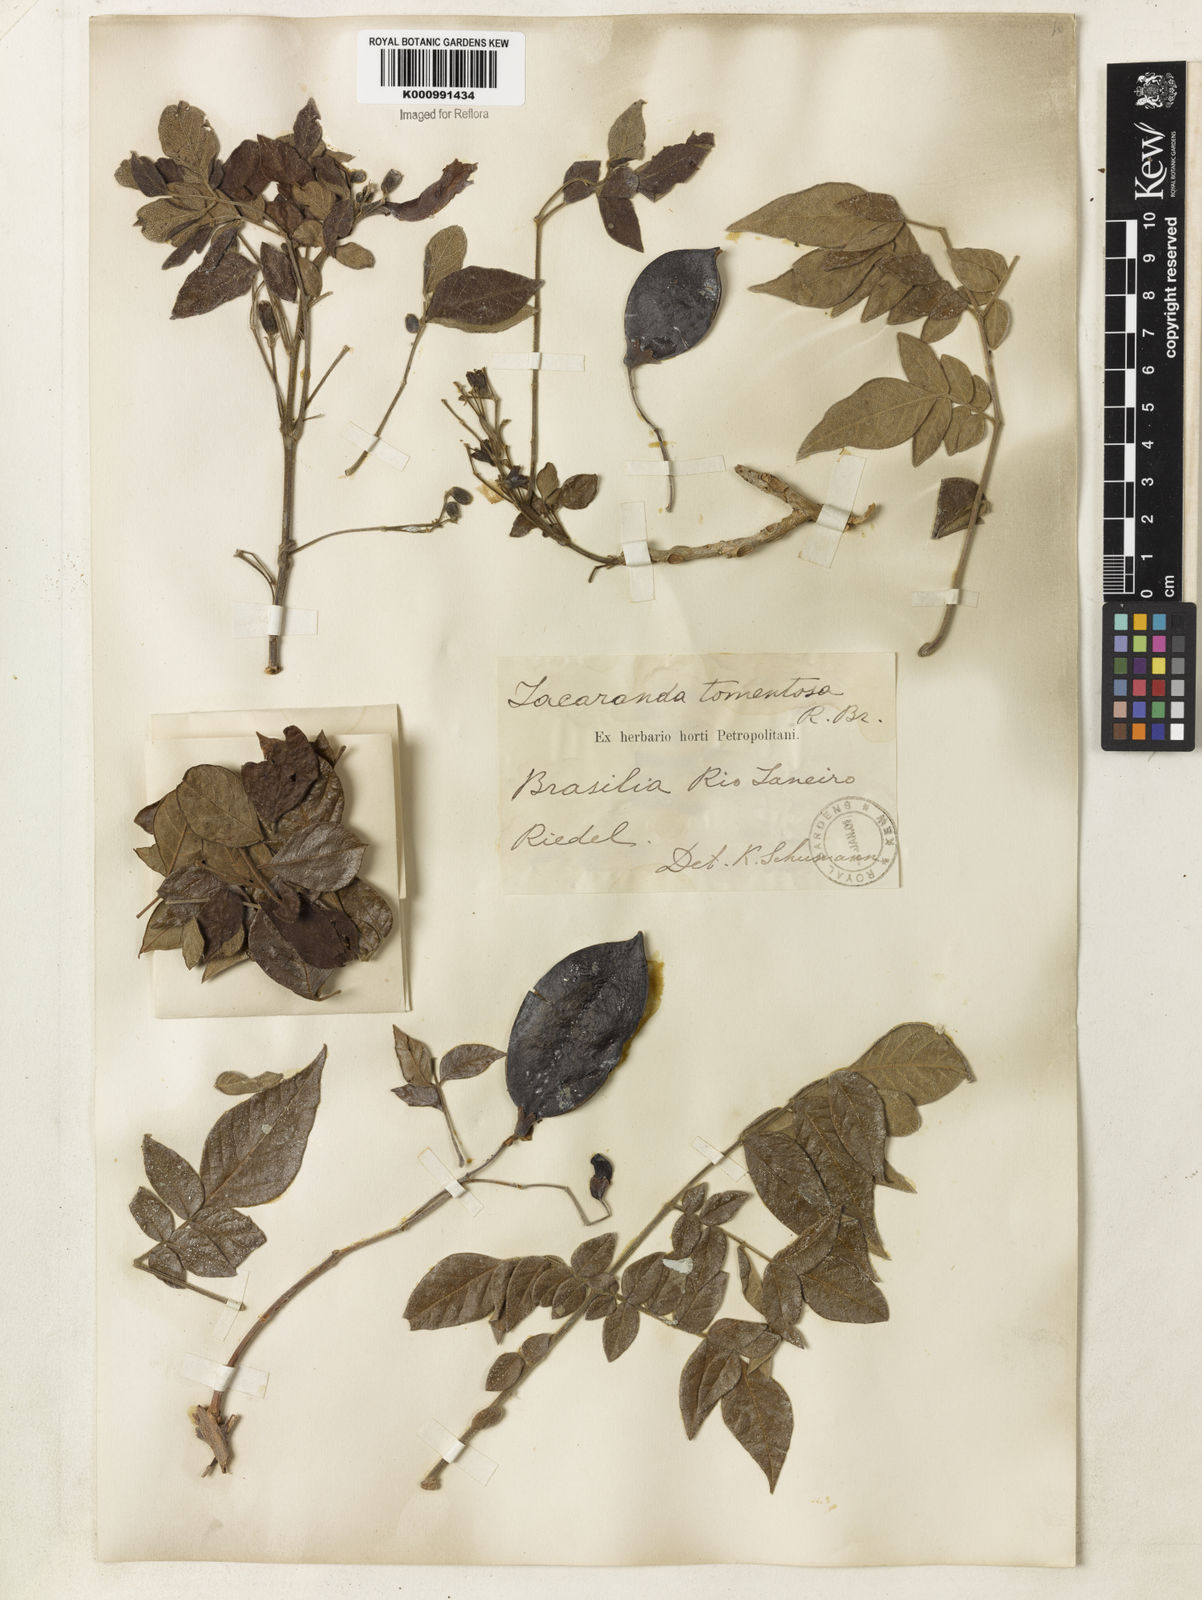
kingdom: Plantae
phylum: Tracheophyta
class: Magnoliopsida
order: Lamiales
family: Bignoniaceae
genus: Jacaranda
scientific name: Jacaranda jasminoides
